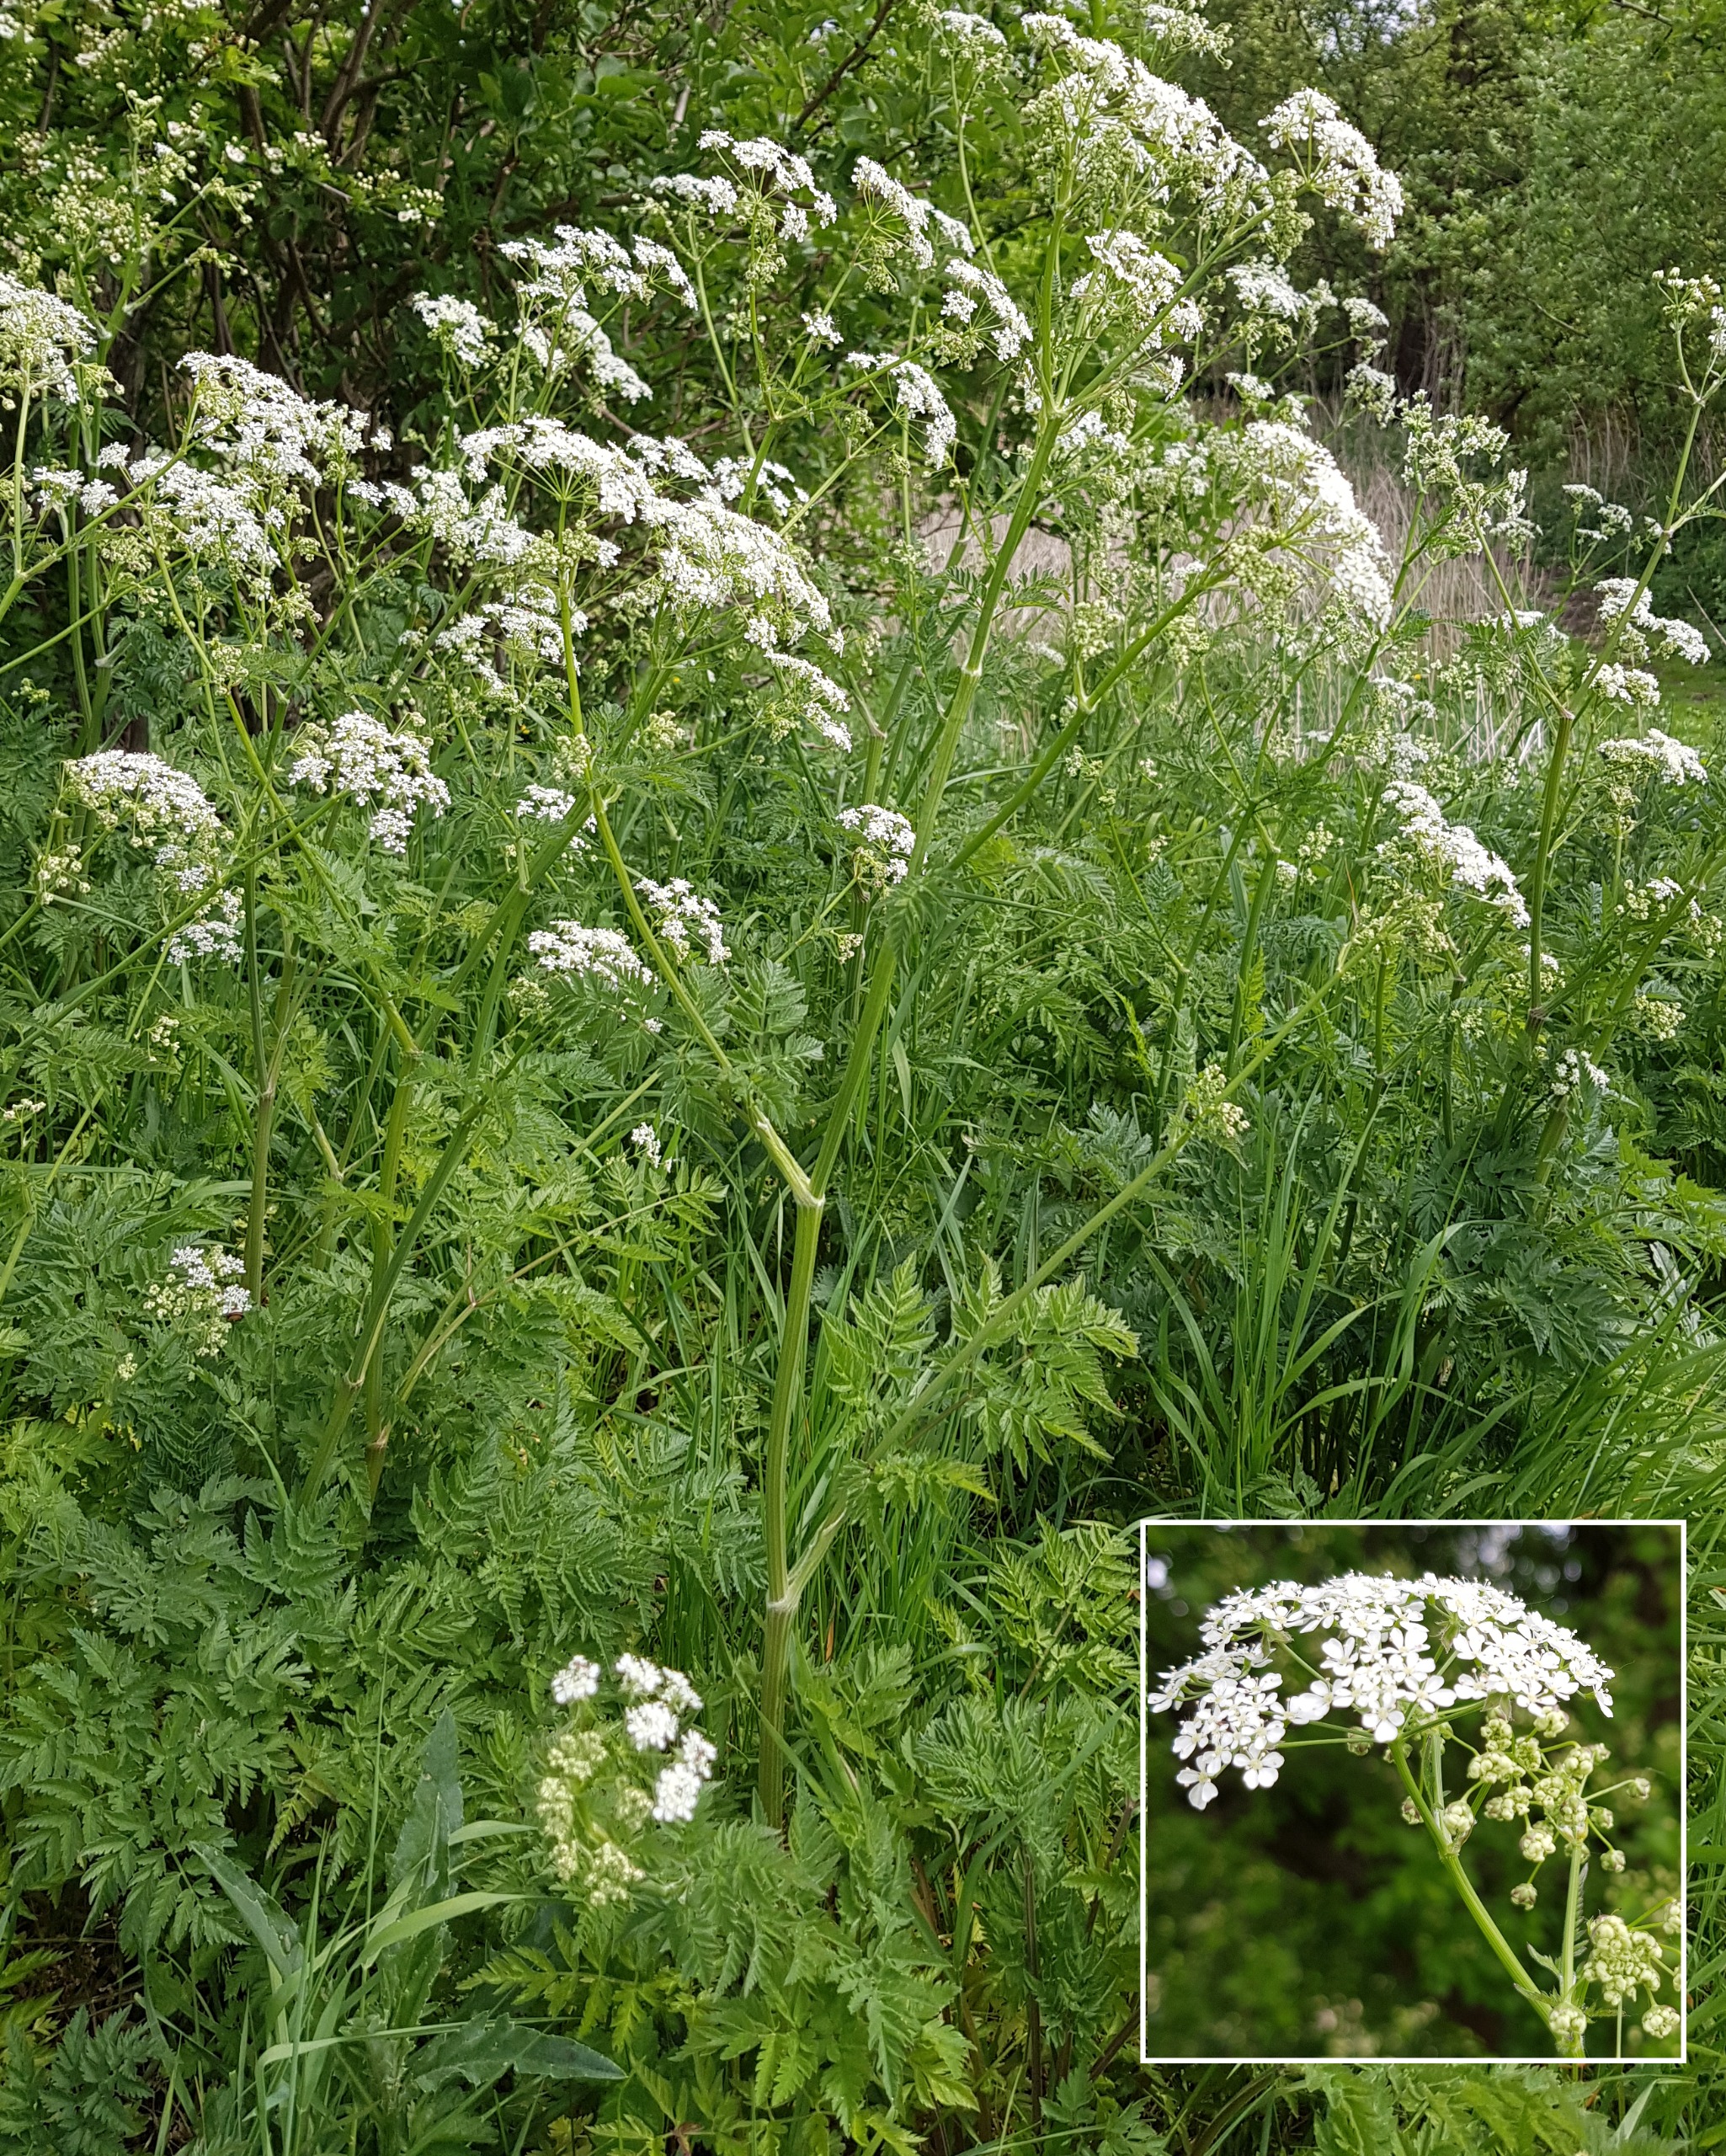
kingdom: Plantae
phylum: Tracheophyta
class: Magnoliopsida
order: Apiales
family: Apiaceae
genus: Anthriscus
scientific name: Anthriscus sylvestris
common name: Vild kørvel
